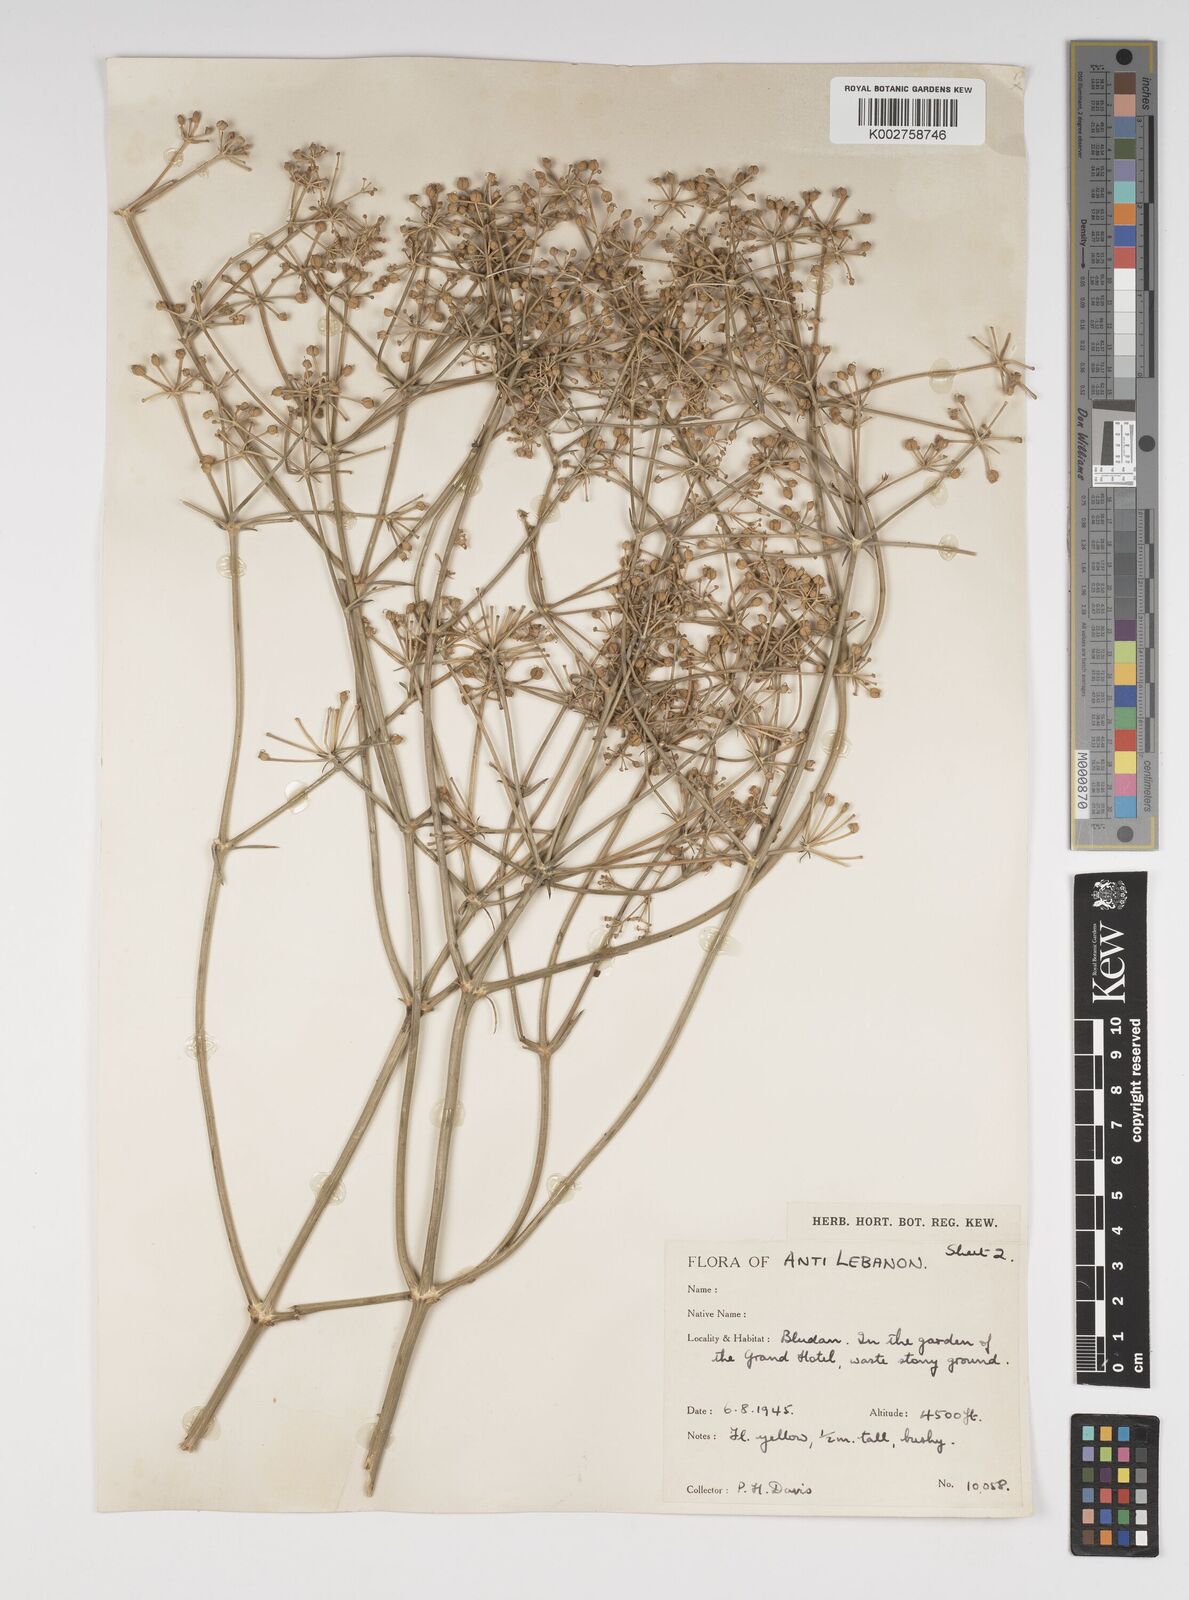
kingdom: Plantae
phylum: Tracheophyta
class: Magnoliopsida
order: Apiales
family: Apiaceae
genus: Cachrys
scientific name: Cachrys boissieri
